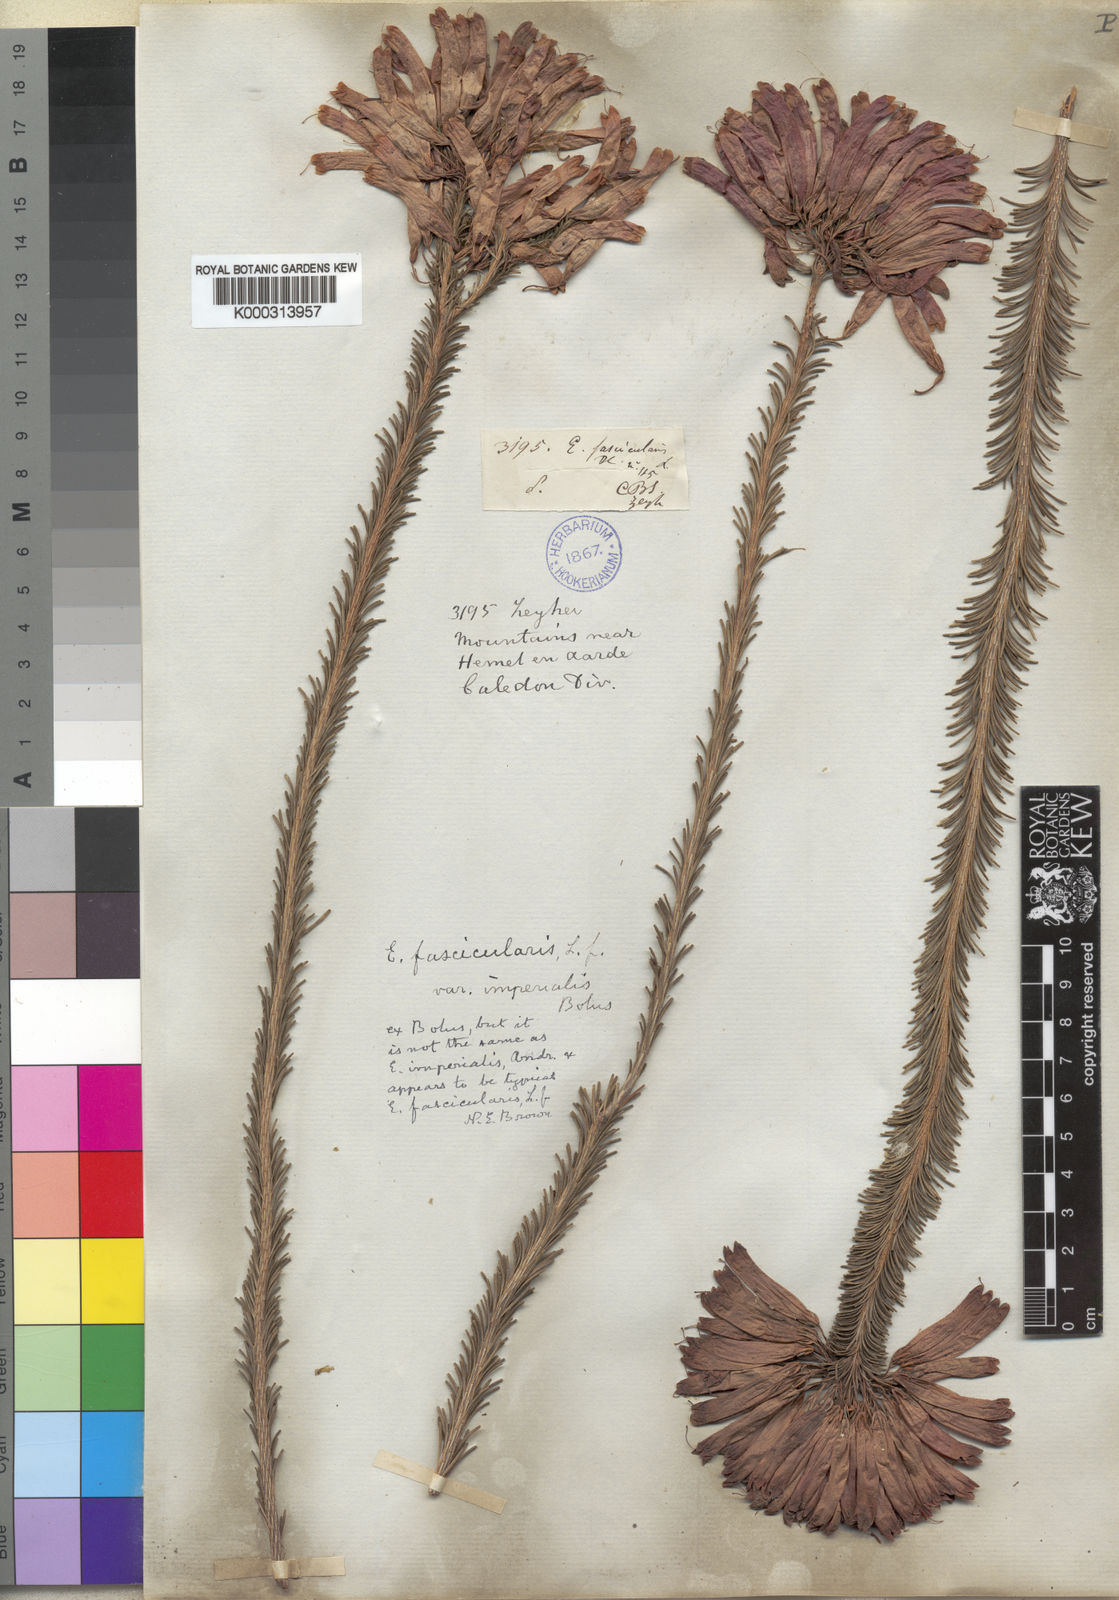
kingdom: Plantae
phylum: Tracheophyta
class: Magnoliopsida
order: Ericales
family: Ericaceae
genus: Erica
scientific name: Erica fascicularis
